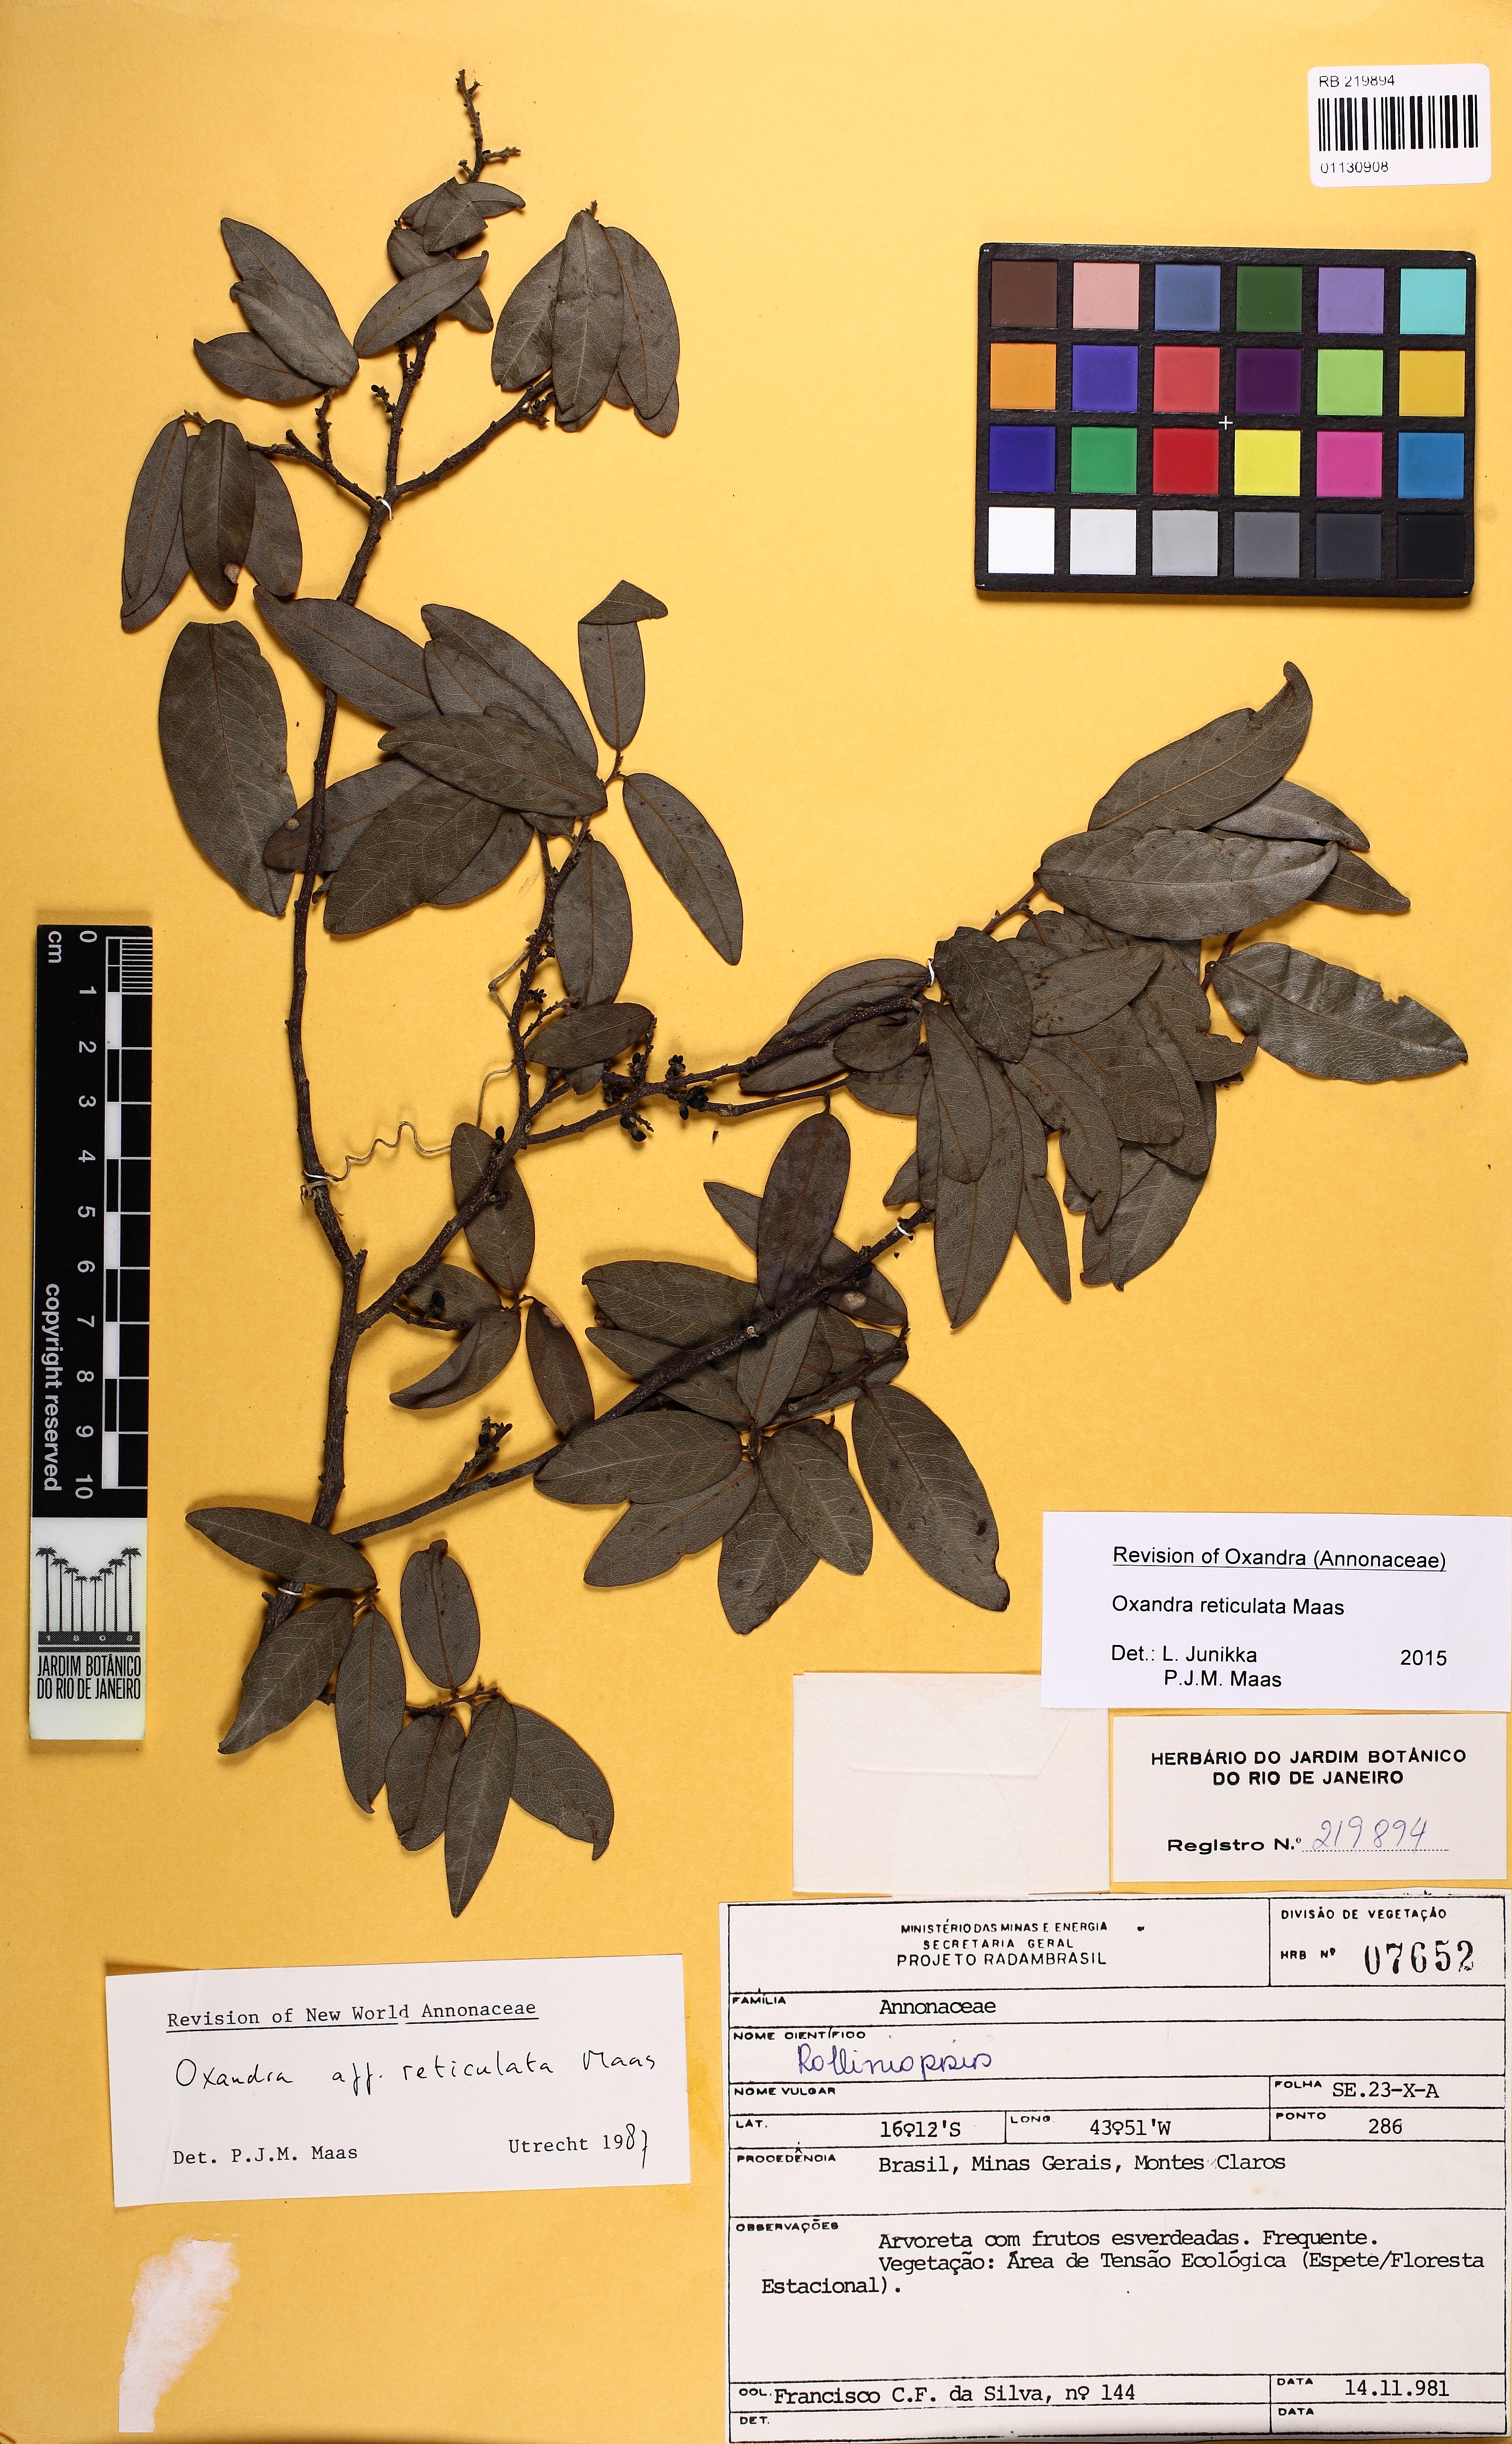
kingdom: Plantae
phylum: Tracheophyta
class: Magnoliopsida
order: Magnoliales
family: Annonaceae
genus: Oxandra
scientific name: Oxandra reticulata
